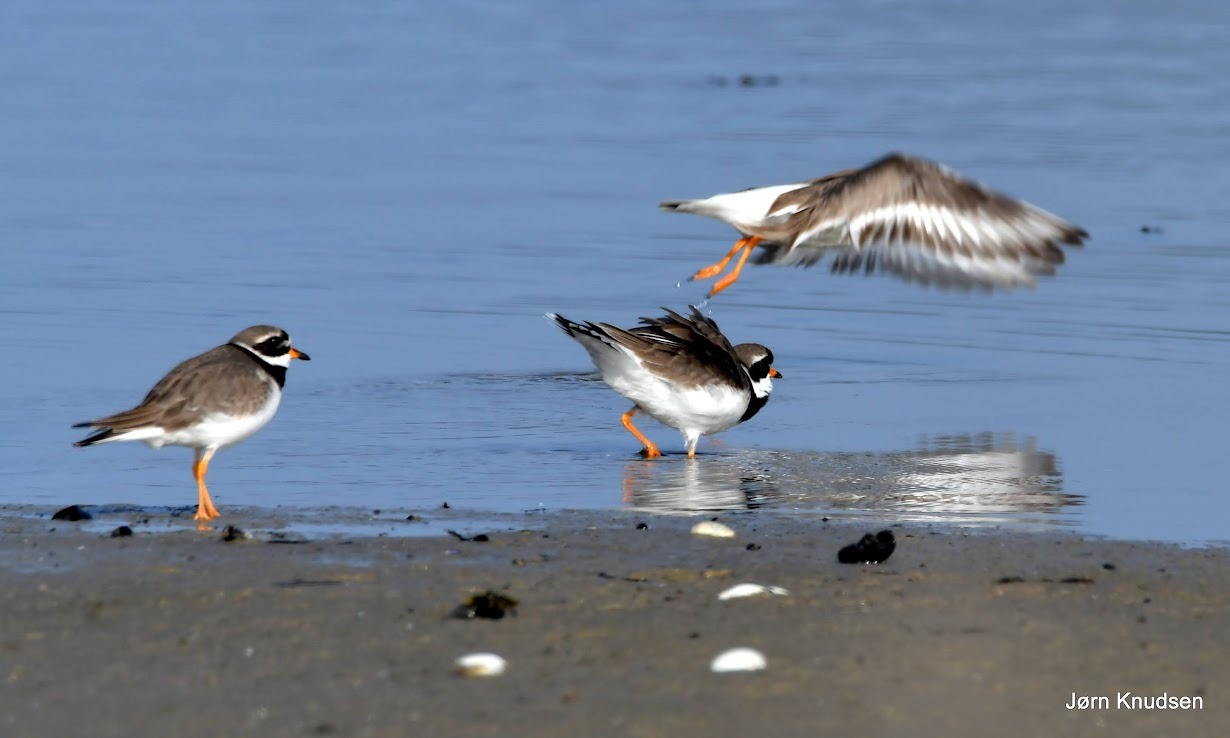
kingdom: Animalia
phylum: Chordata
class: Aves
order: Charadriiformes
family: Charadriidae
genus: Charadrius
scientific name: Charadrius hiaticula
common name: Stor præstekrave
